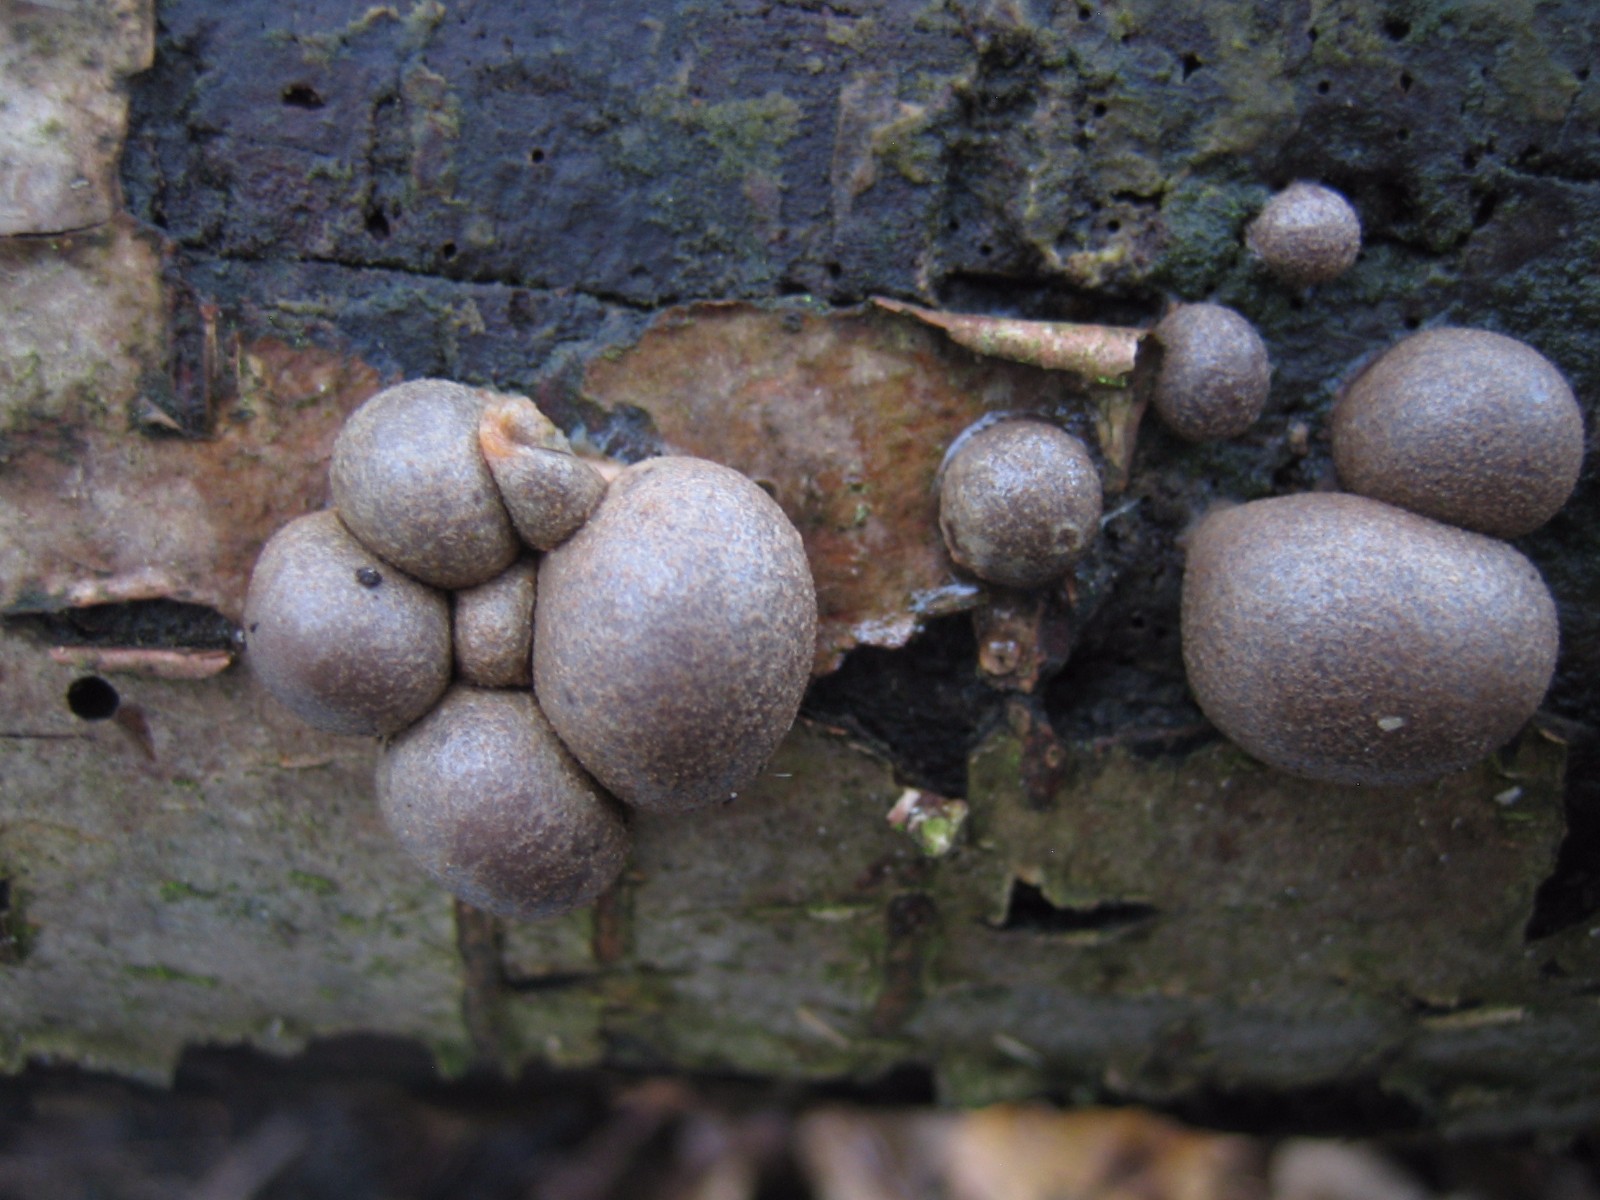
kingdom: Protozoa
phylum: Mycetozoa
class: Myxomycetes
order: Cribrariales
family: Tubiferaceae
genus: Lycogala
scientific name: Lycogala epidendrum
